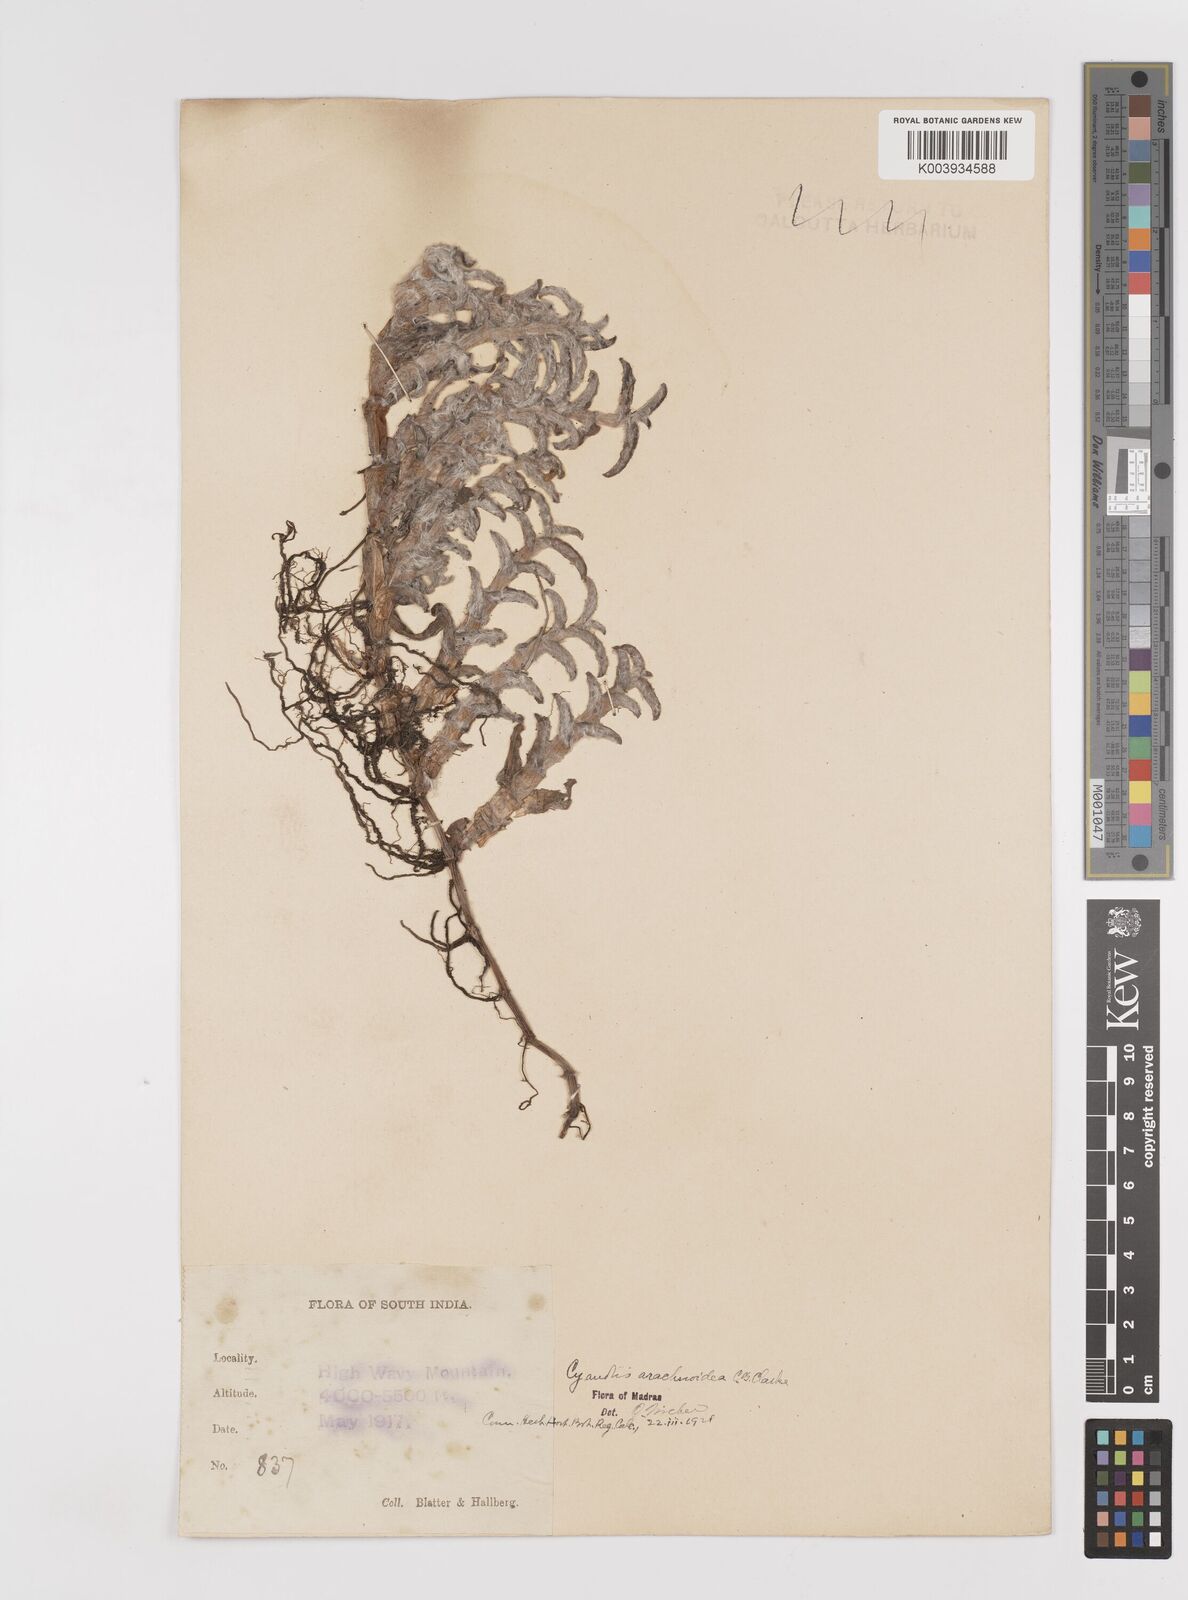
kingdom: Plantae
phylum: Tracheophyta
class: Liliopsida
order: Commelinales
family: Commelinaceae
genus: Cyanotis
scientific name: Cyanotis arachnoidea
